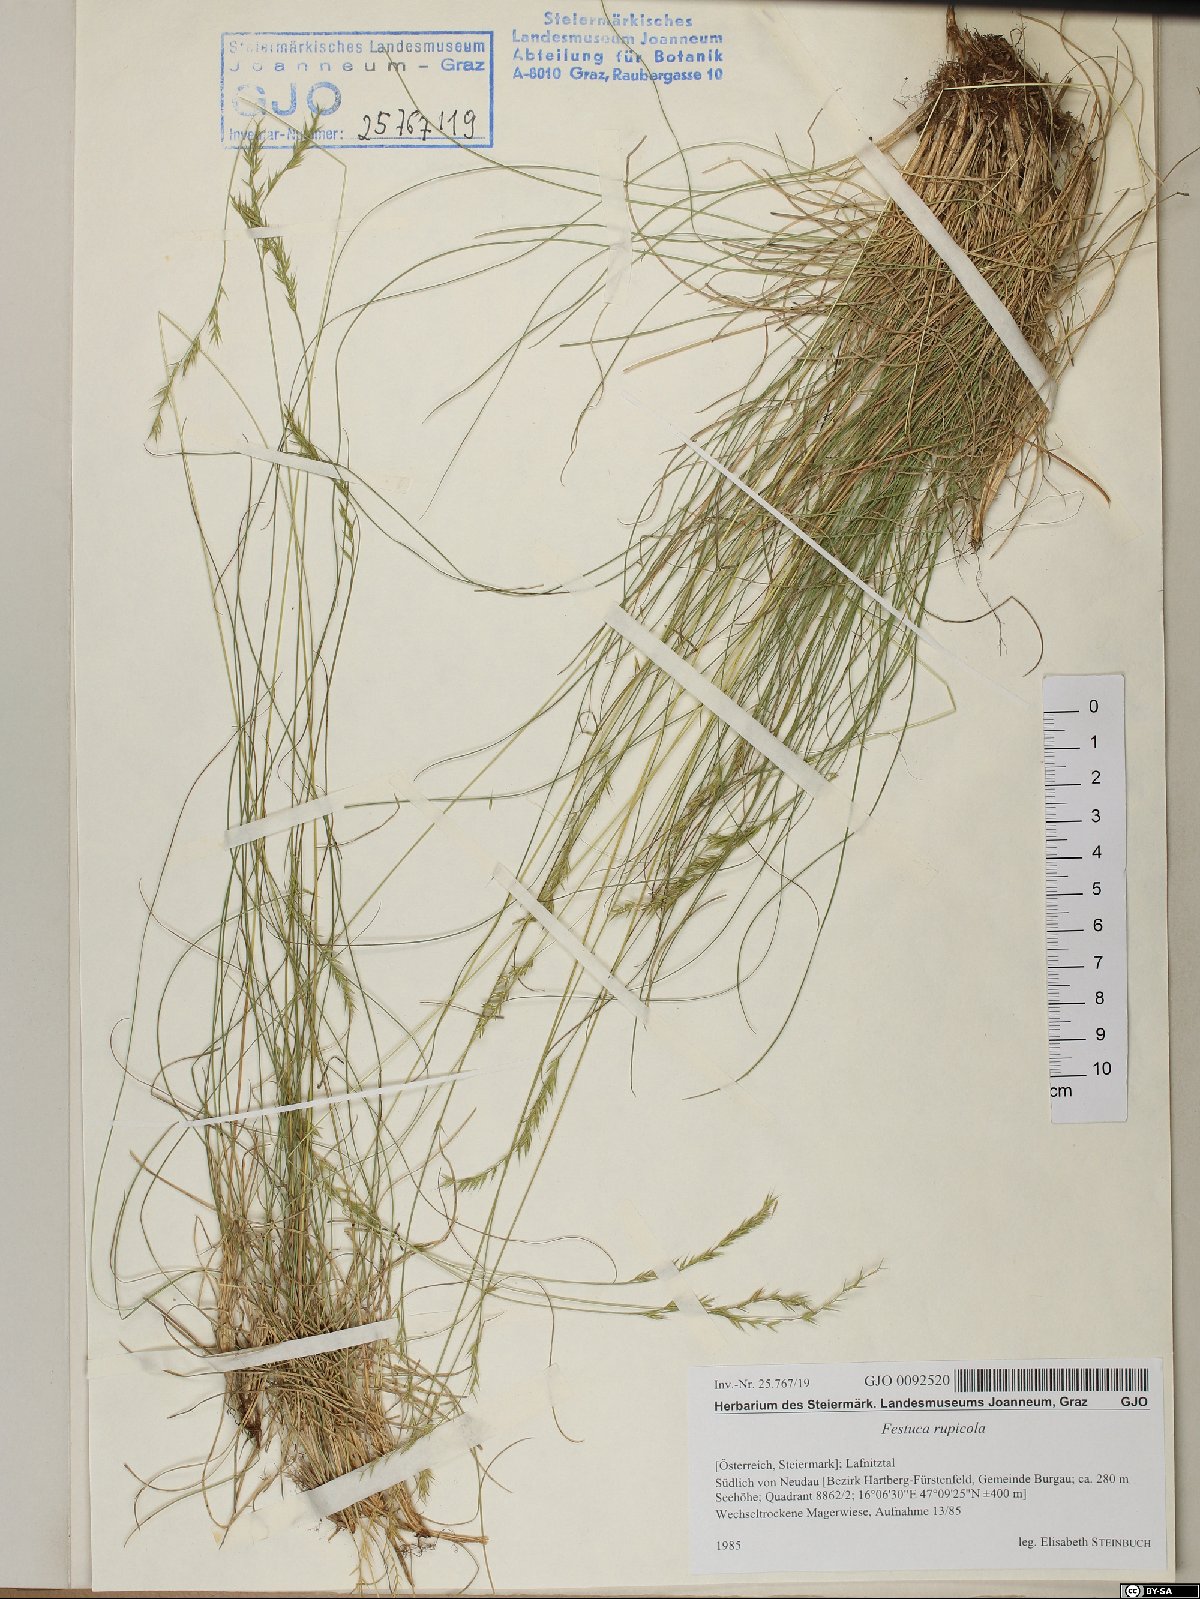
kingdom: Plantae
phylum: Tracheophyta
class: Liliopsida
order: Poales
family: Poaceae
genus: Festuca
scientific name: Festuca rupicola
